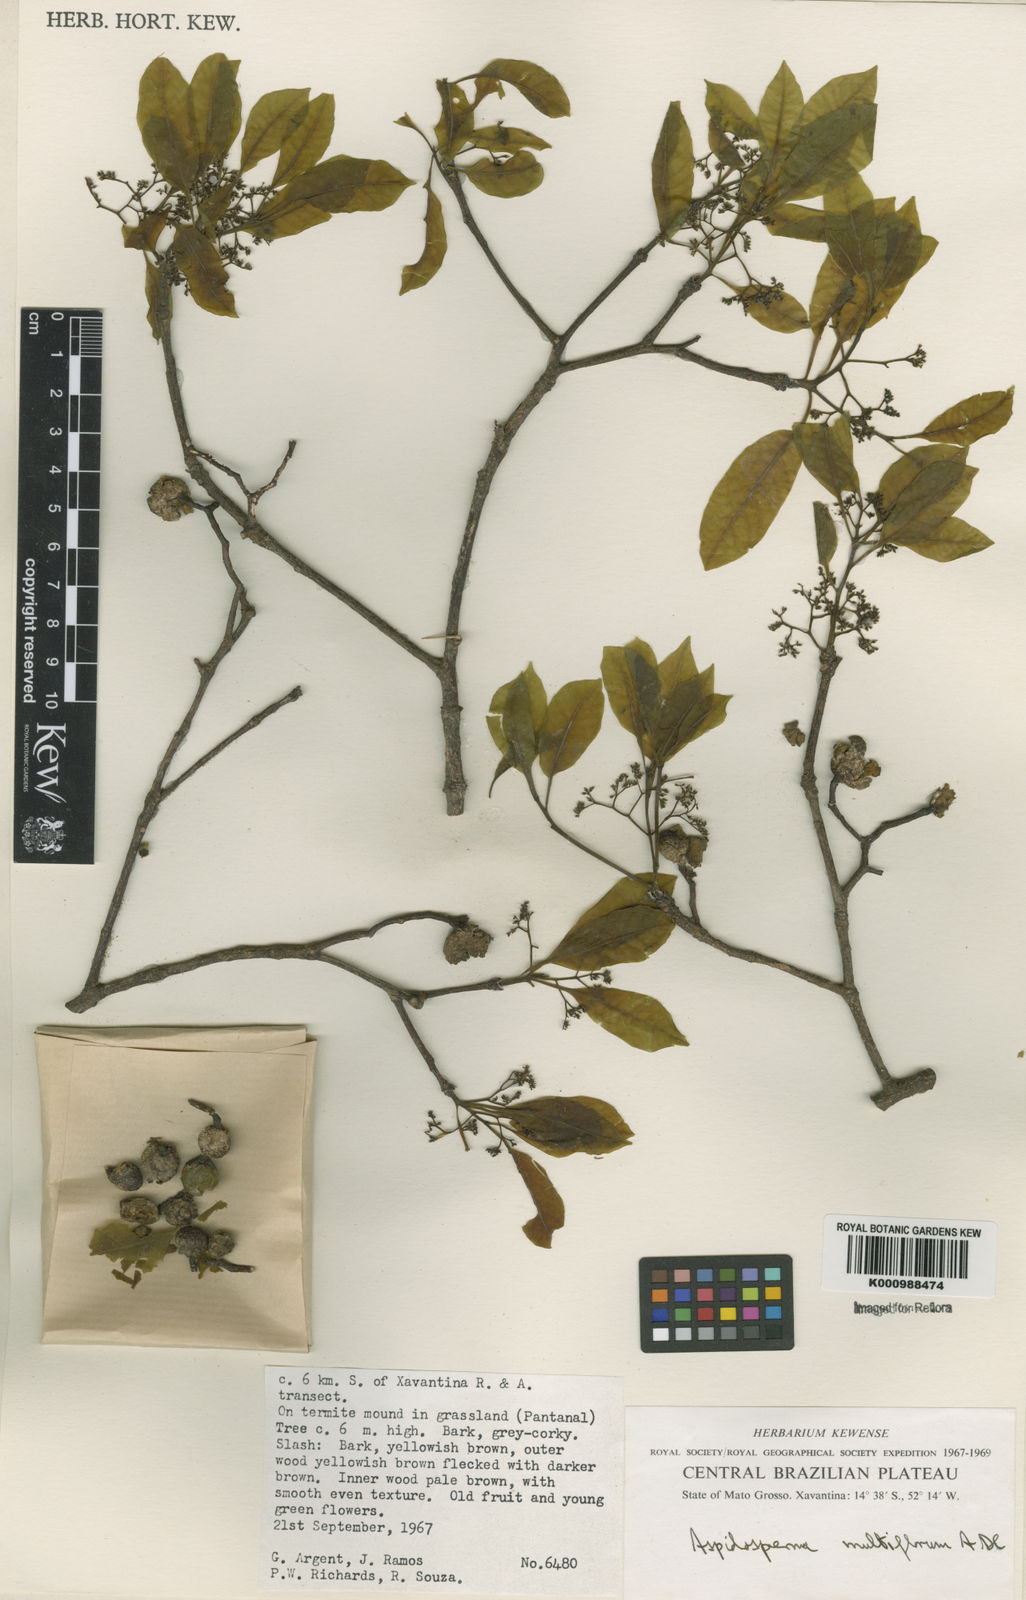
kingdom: Plantae
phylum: Tracheophyta
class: Magnoliopsida
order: Gentianales
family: Apocynaceae
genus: Aspidosperma
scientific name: Aspidosperma multiflorum
